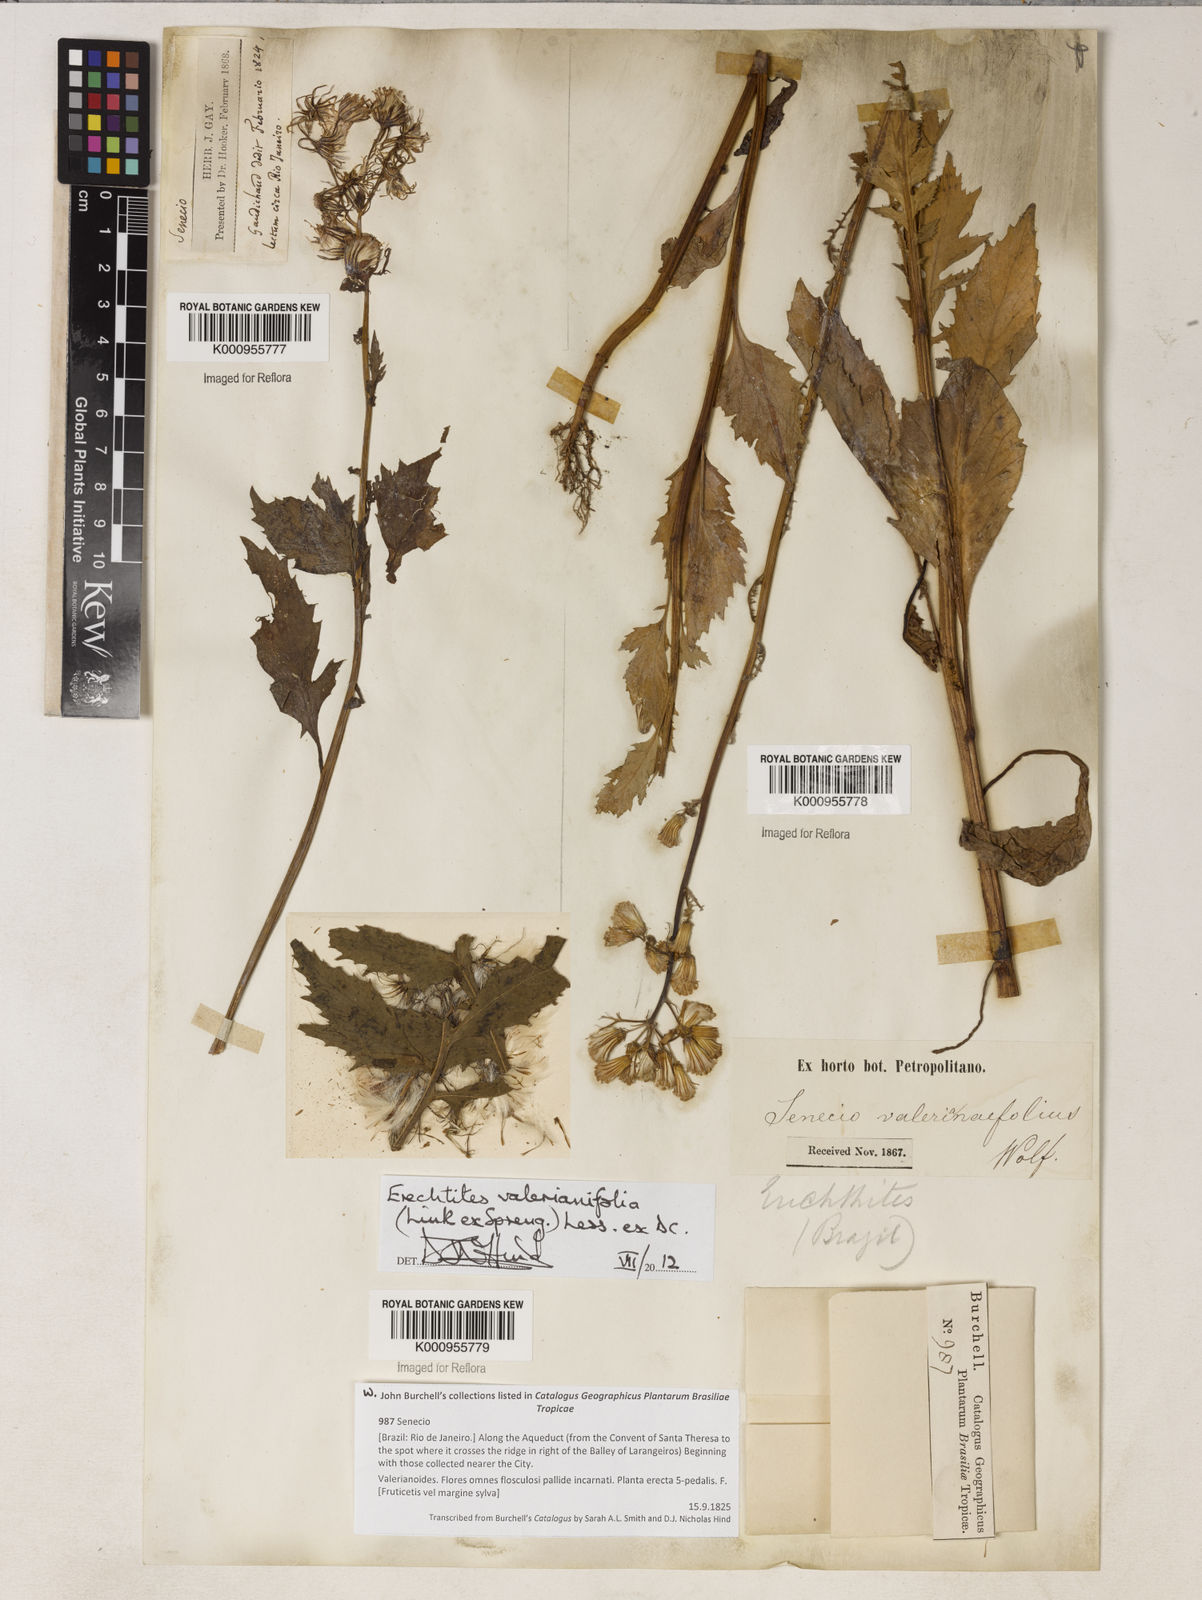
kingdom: Plantae
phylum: Tracheophyta
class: Magnoliopsida
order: Asterales
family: Asteraceae
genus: Erechtites
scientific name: Erechtites valerianifolius
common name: Tropical burnweed
